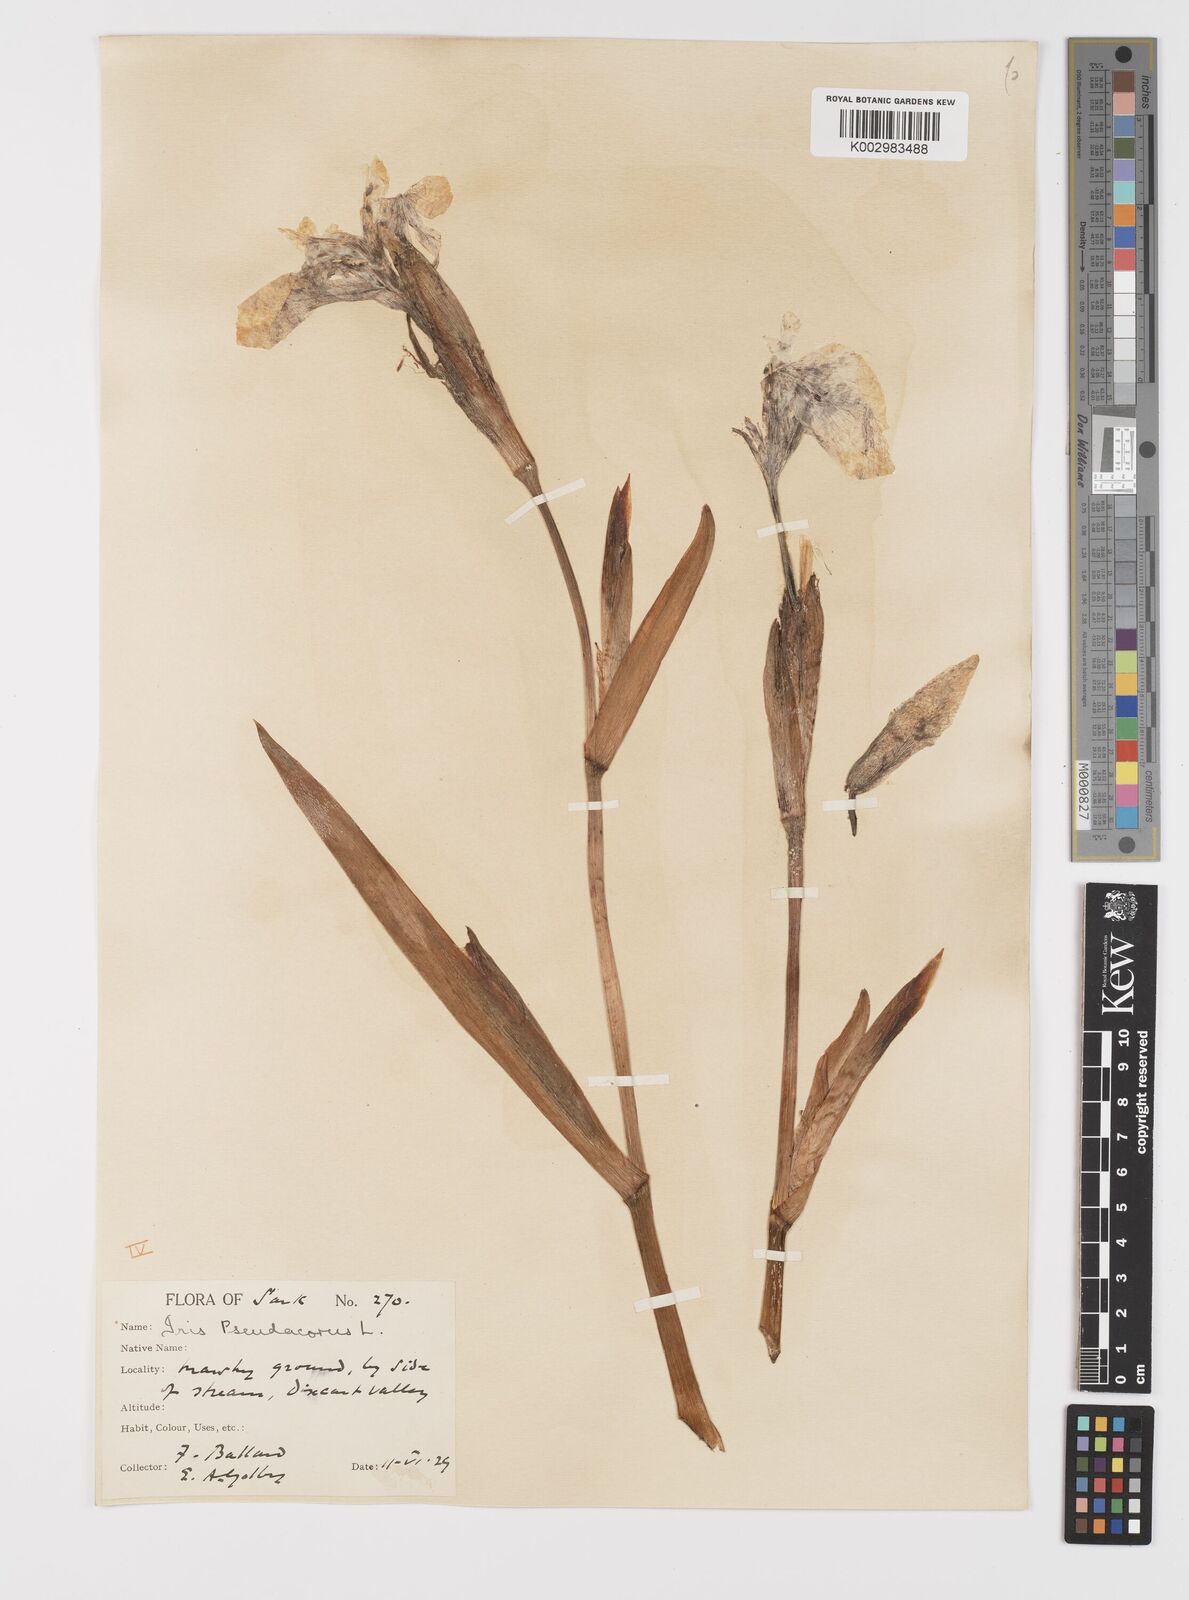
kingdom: Plantae
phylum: Tracheophyta
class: Liliopsida
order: Asparagales
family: Iridaceae
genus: Iris
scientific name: Iris pseudacorus
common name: Yellow flag
